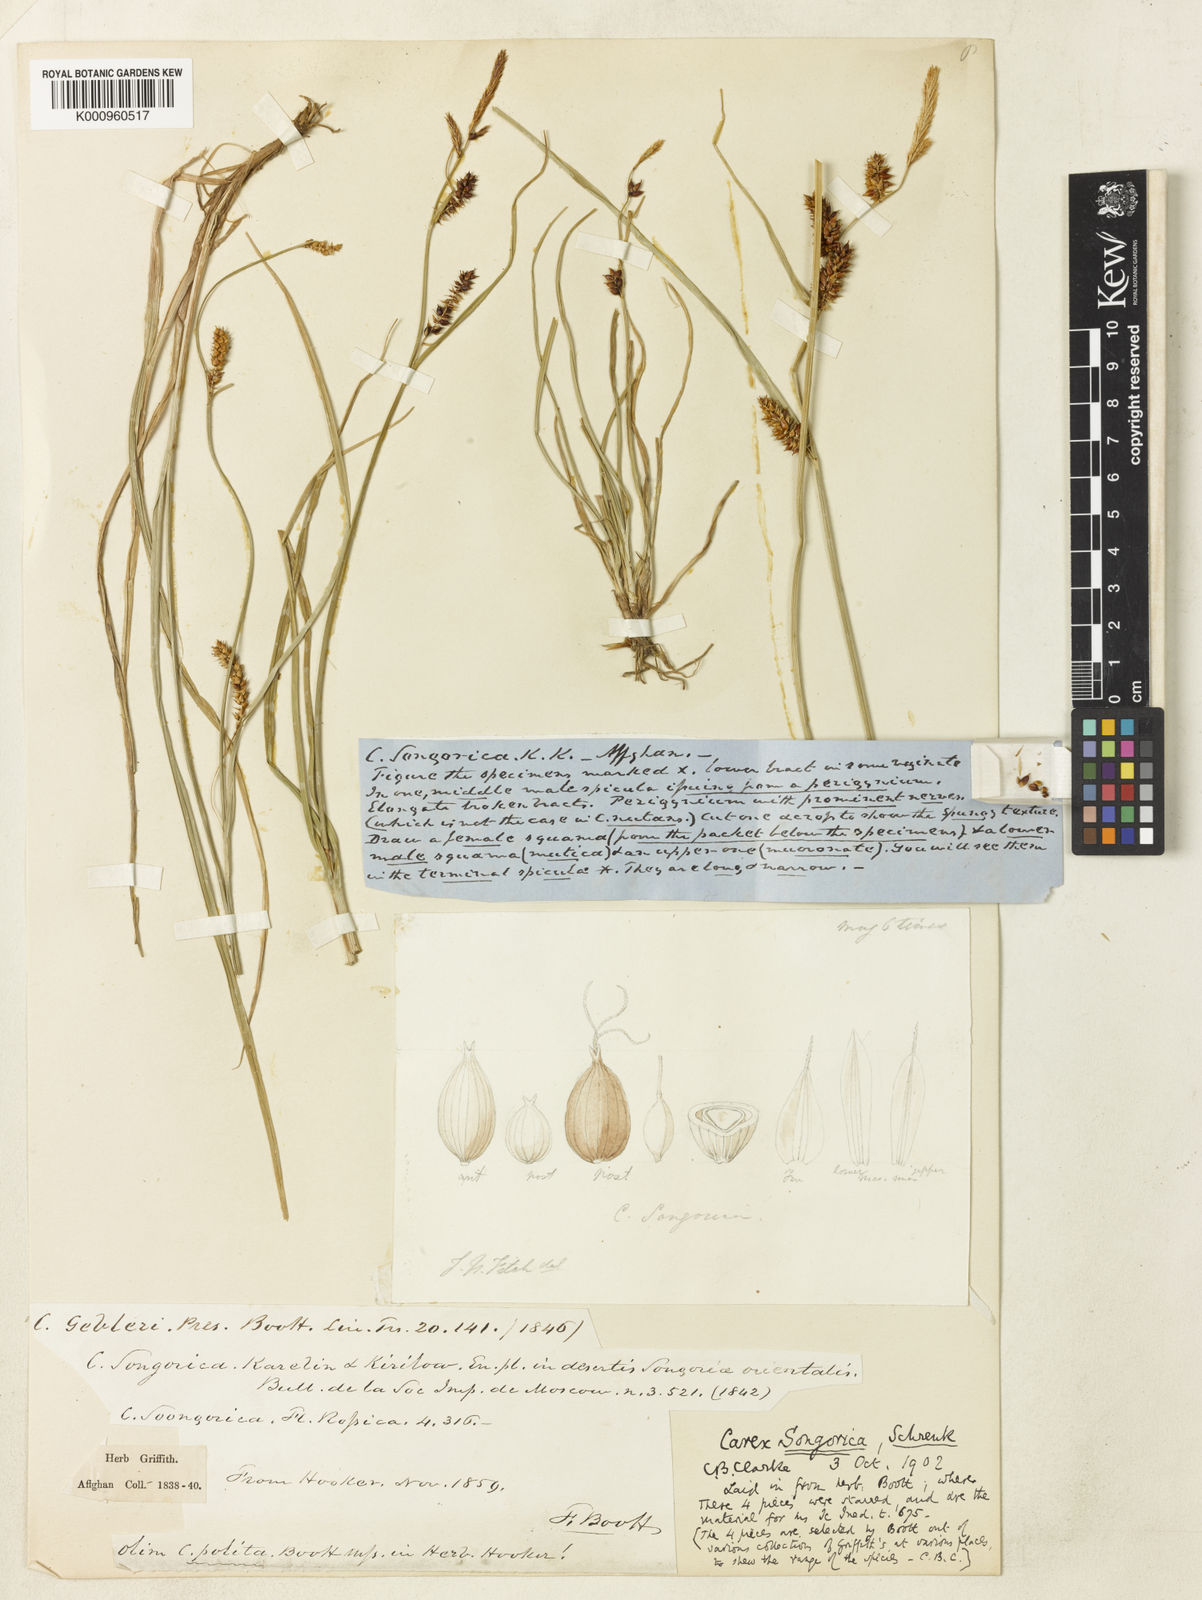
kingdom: Plantae
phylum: Tracheophyta
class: Liliopsida
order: Poales
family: Cyperaceae
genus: Carex
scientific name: Carex heterostachya
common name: Different-spike sedge
